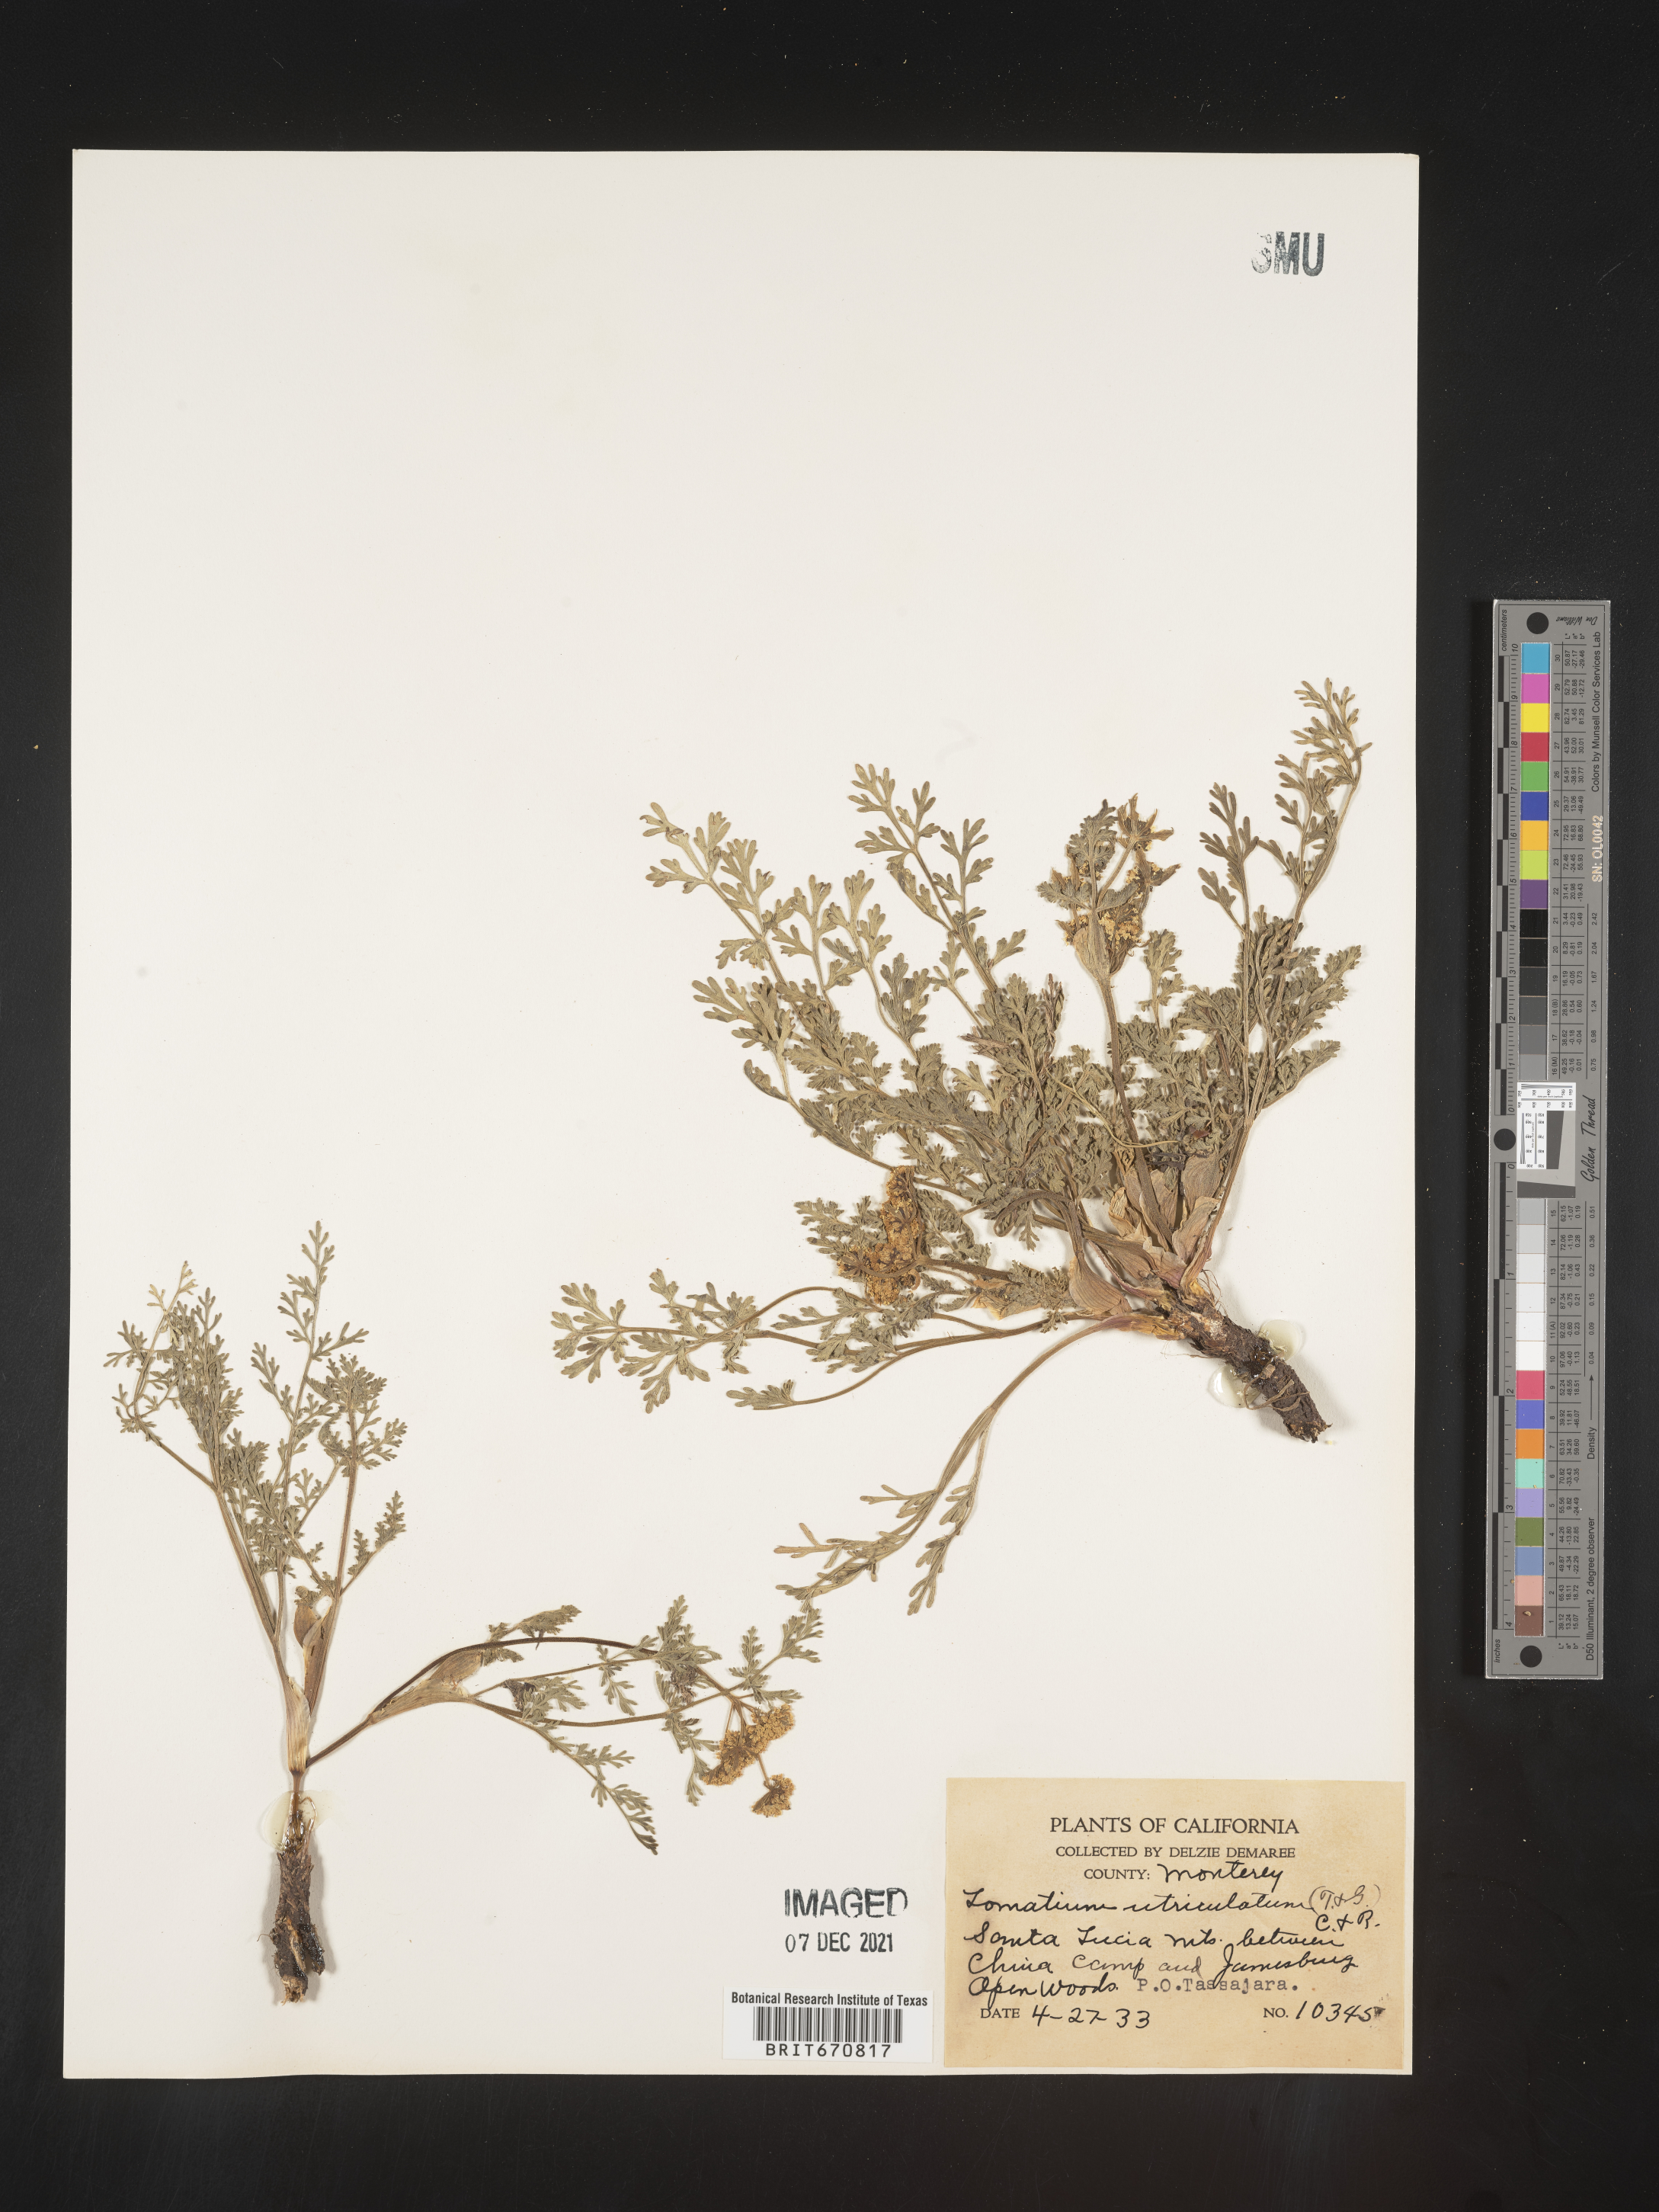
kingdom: Plantae
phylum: Tracheophyta
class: Magnoliopsida
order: Apiales
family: Apiaceae
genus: Lomatium
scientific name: Lomatium utriculatum
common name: Fine-leaf desert-parsley
